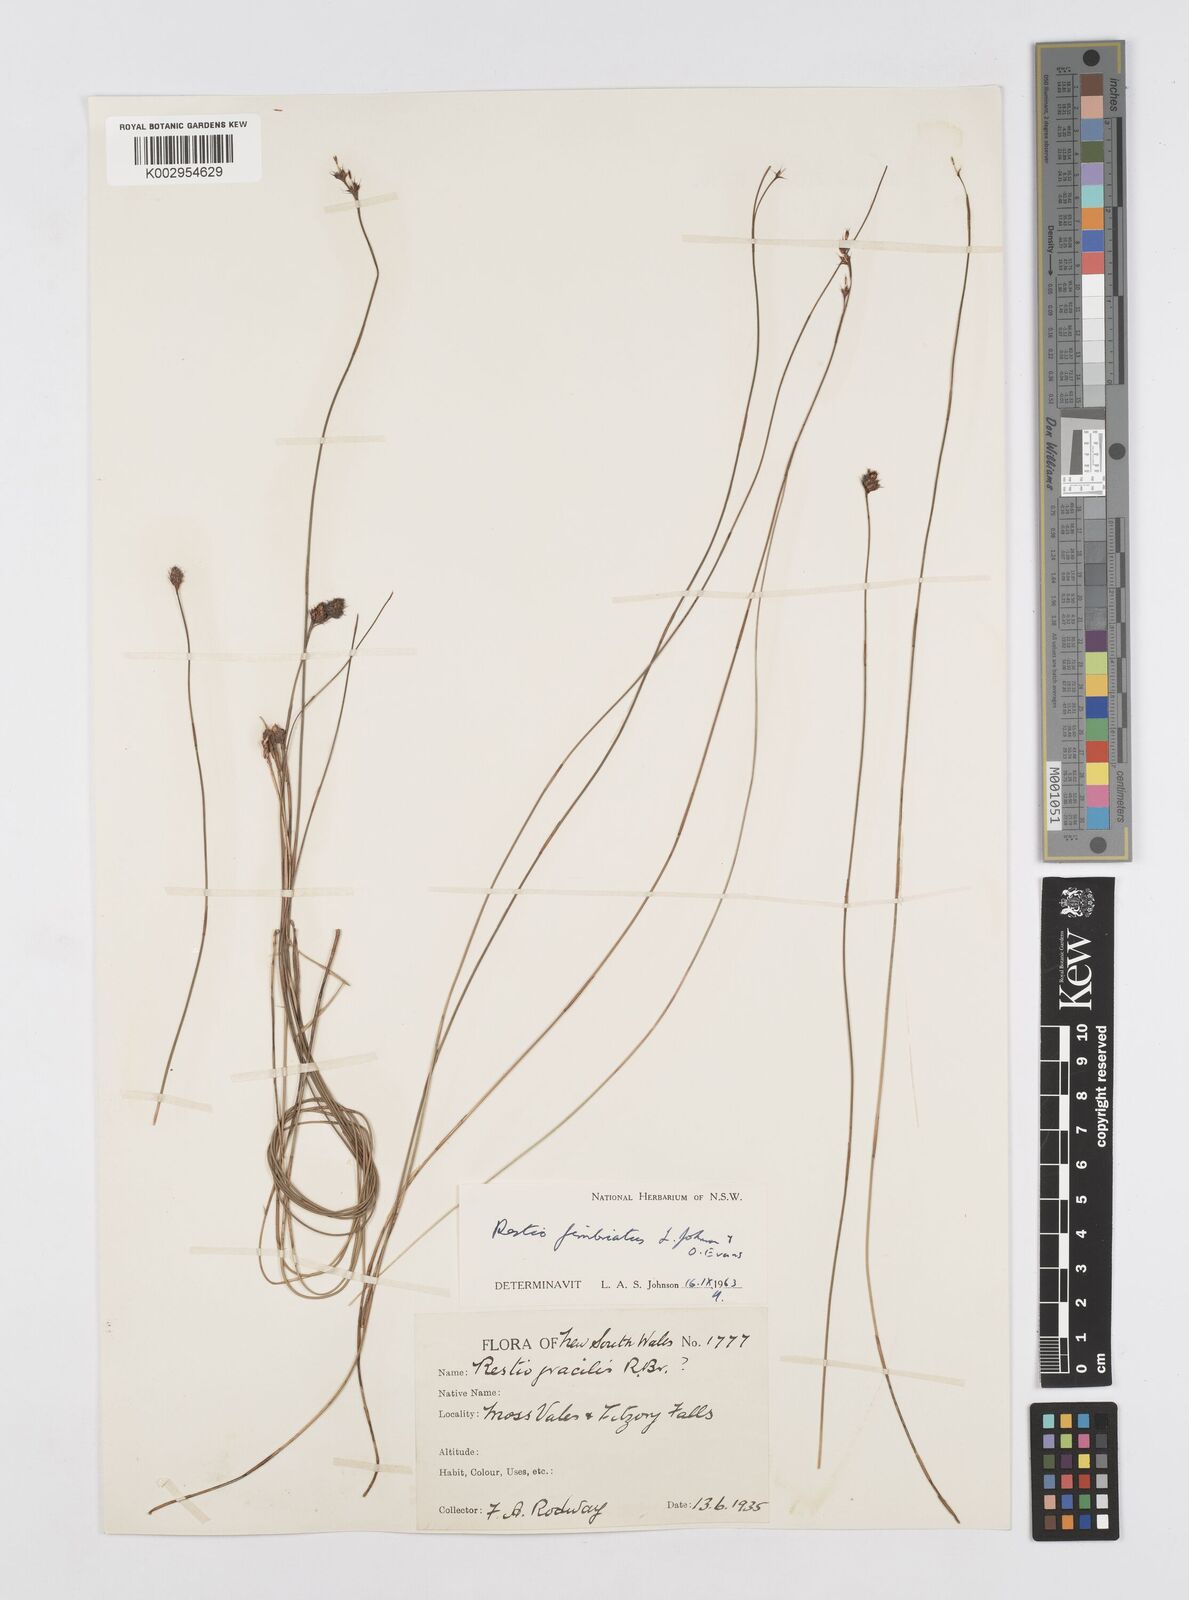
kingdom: Plantae
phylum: Tracheophyta
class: Liliopsida
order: Poales
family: Restionaceae
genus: Baloskion
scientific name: Baloskion fimbriatum
